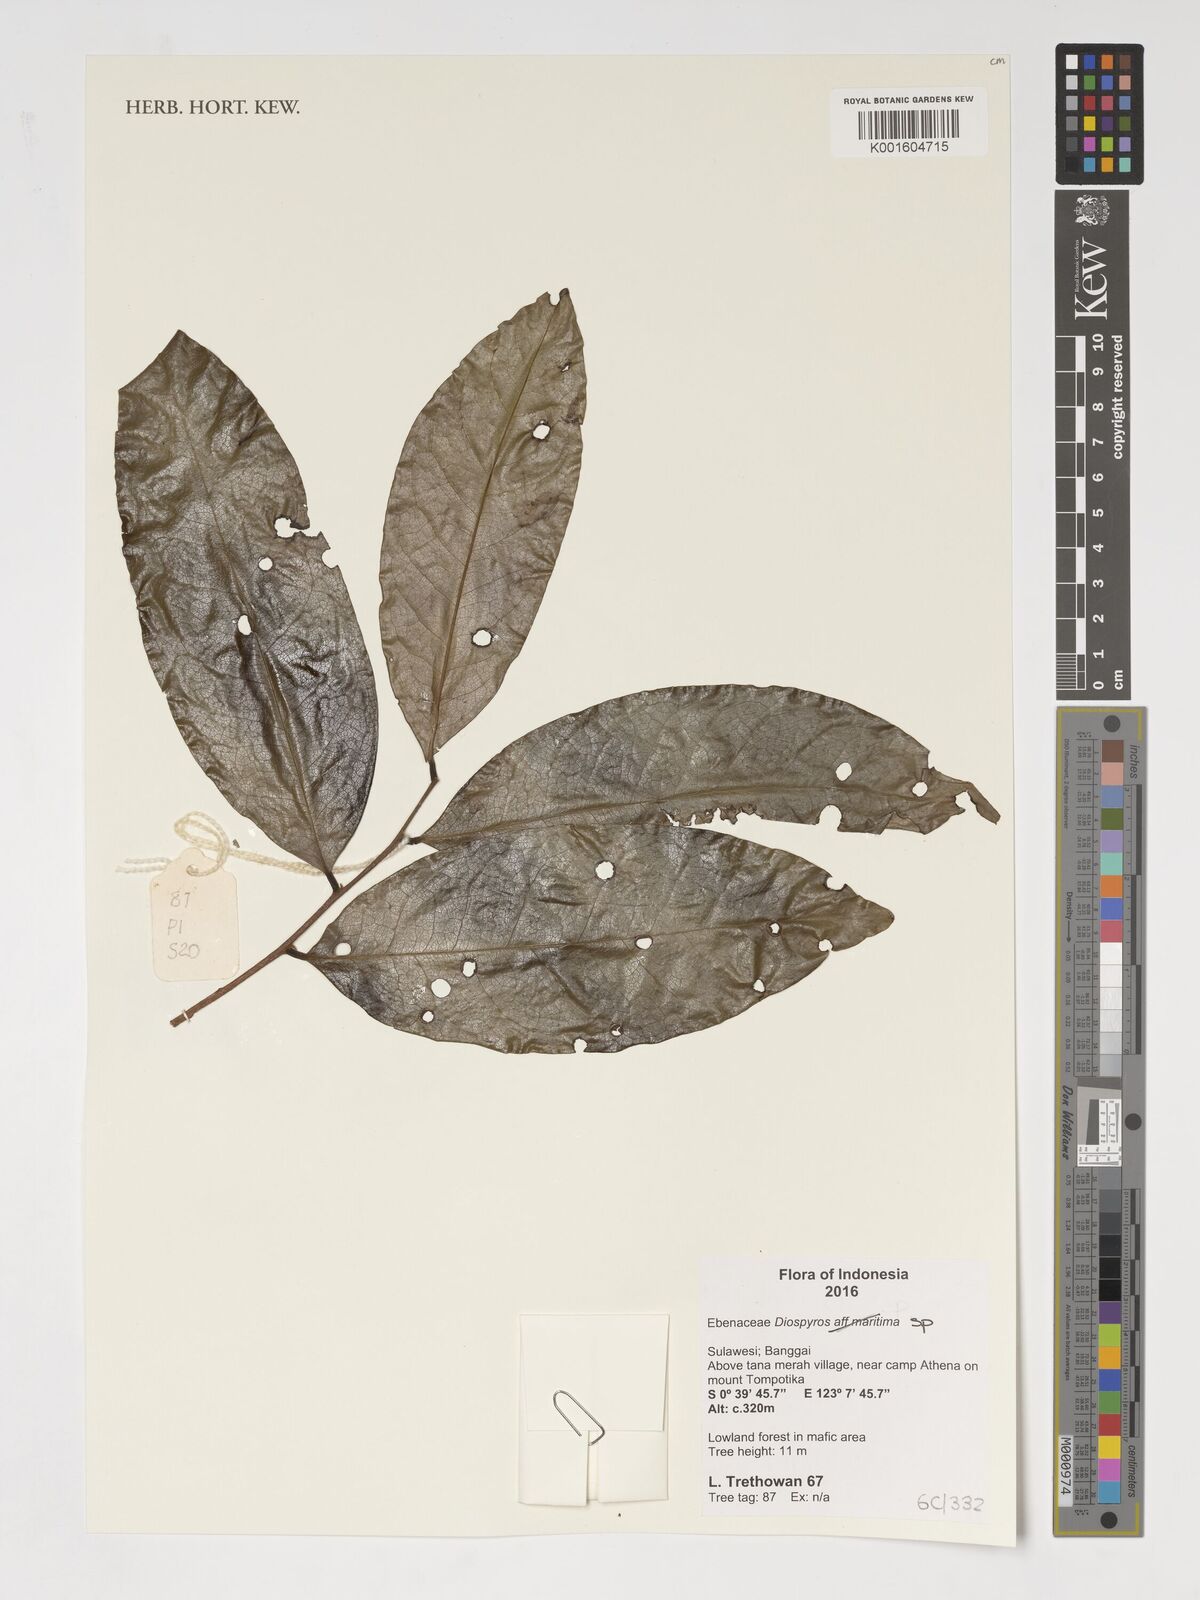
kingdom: Plantae
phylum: Tracheophyta
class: Magnoliopsida
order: Ericales
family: Ebenaceae
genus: Diospyros
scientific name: Diospyros
